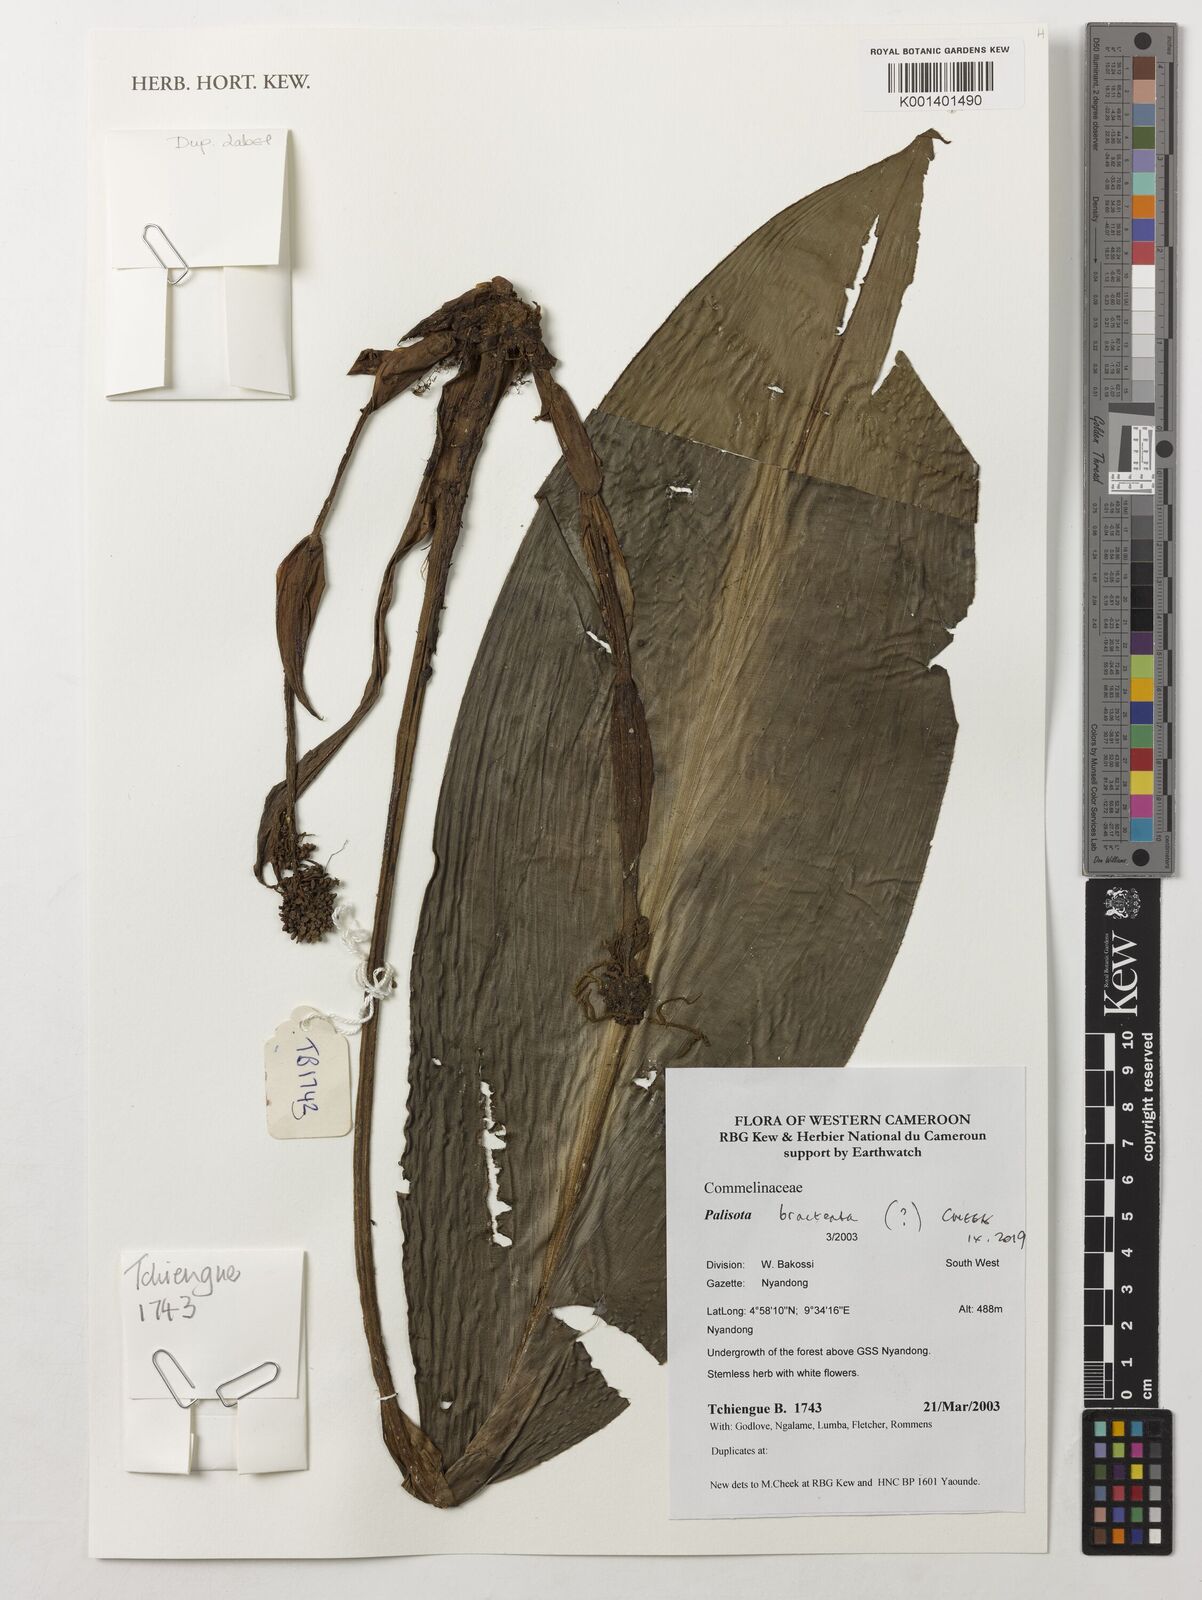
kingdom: Plantae
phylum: Tracheophyta
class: Liliopsida
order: Commelinales
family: Commelinaceae
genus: Palisota
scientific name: Palisota bracteosa
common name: Palisota
